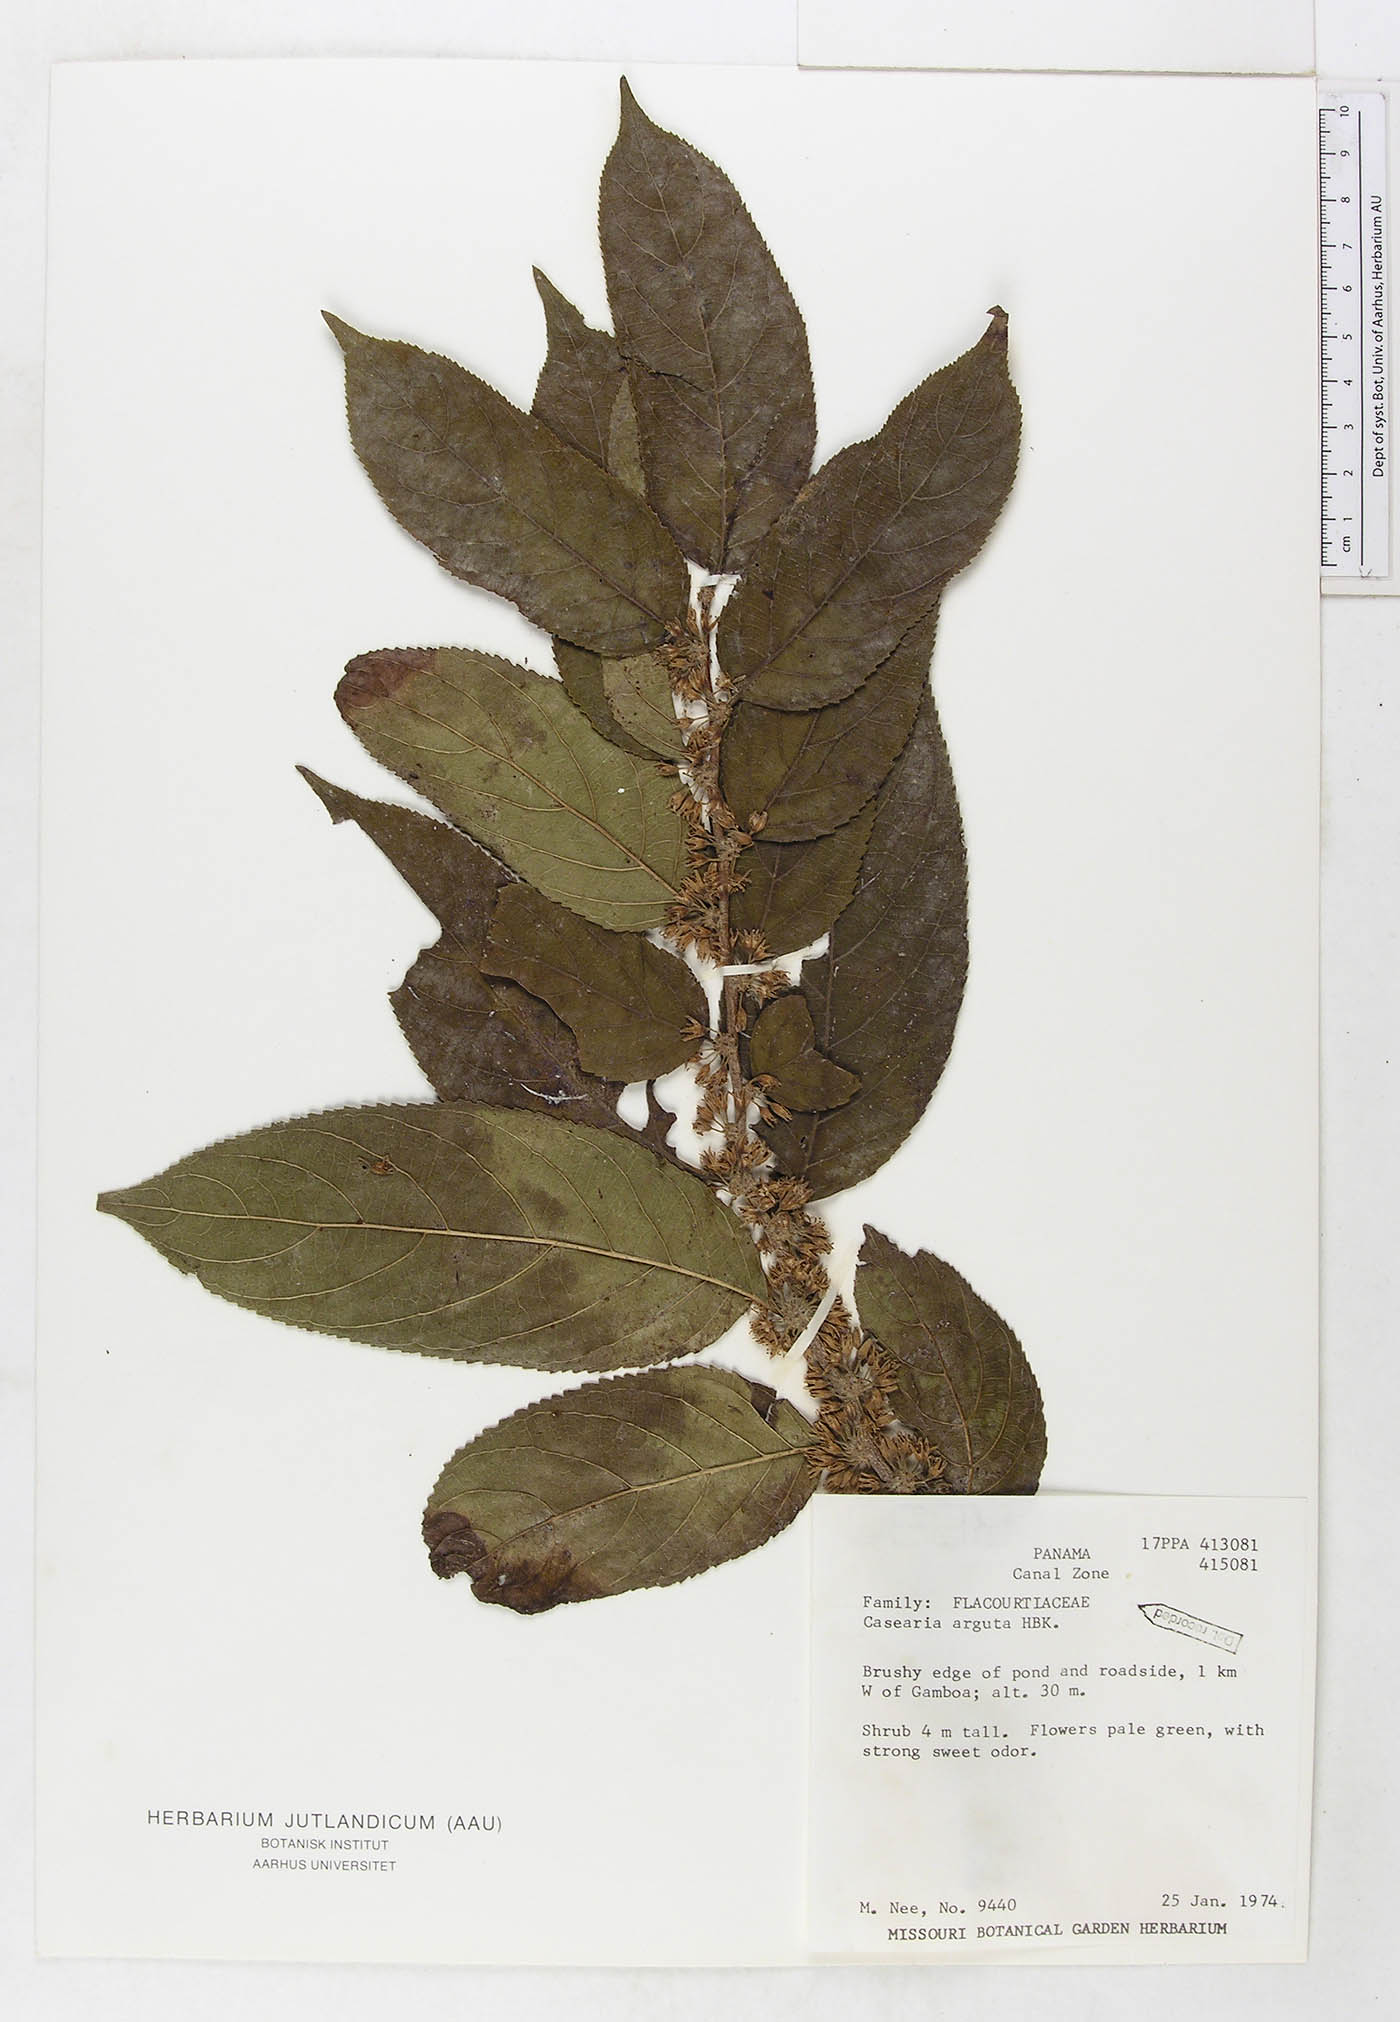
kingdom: Plantae
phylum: Tracheophyta
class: Magnoliopsida
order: Malpighiales
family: Salicaceae
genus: Casearia
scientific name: Casearia arguta
